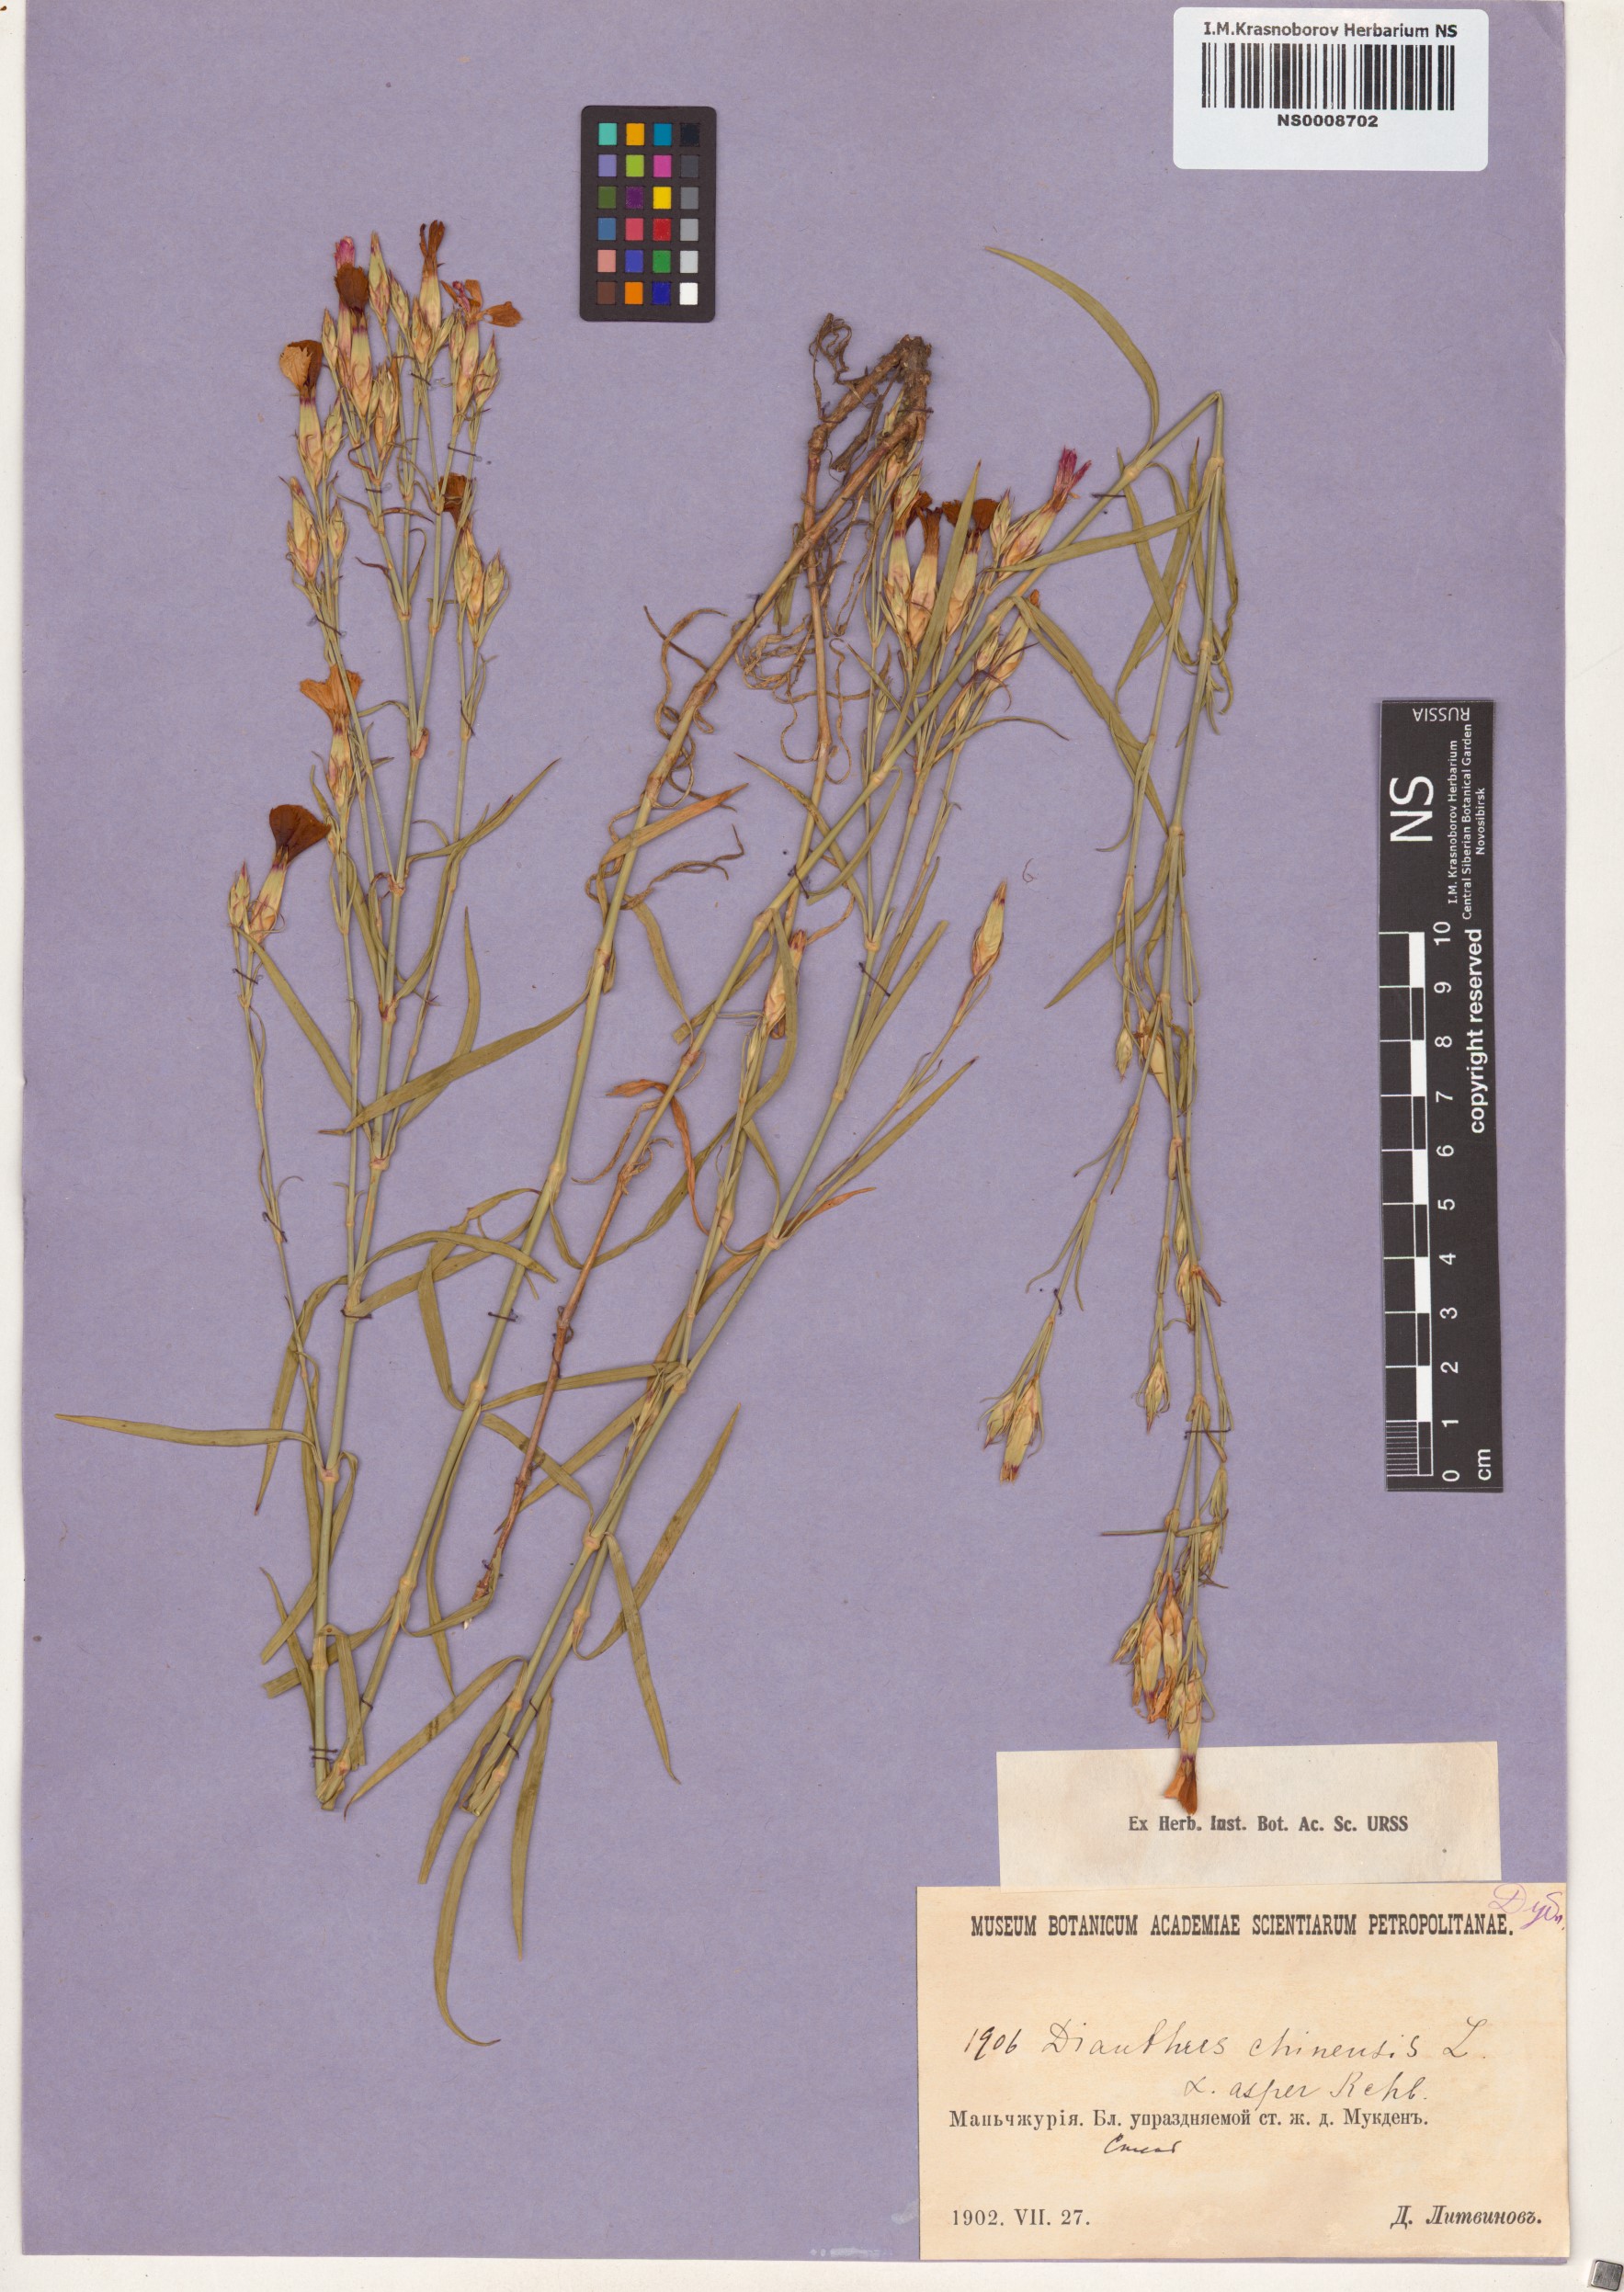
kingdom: Plantae
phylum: Tracheophyta
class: Magnoliopsida
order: Caryophyllales
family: Caryophyllaceae
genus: Dianthus
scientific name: Dianthus chinensis
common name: Rainbow pink
